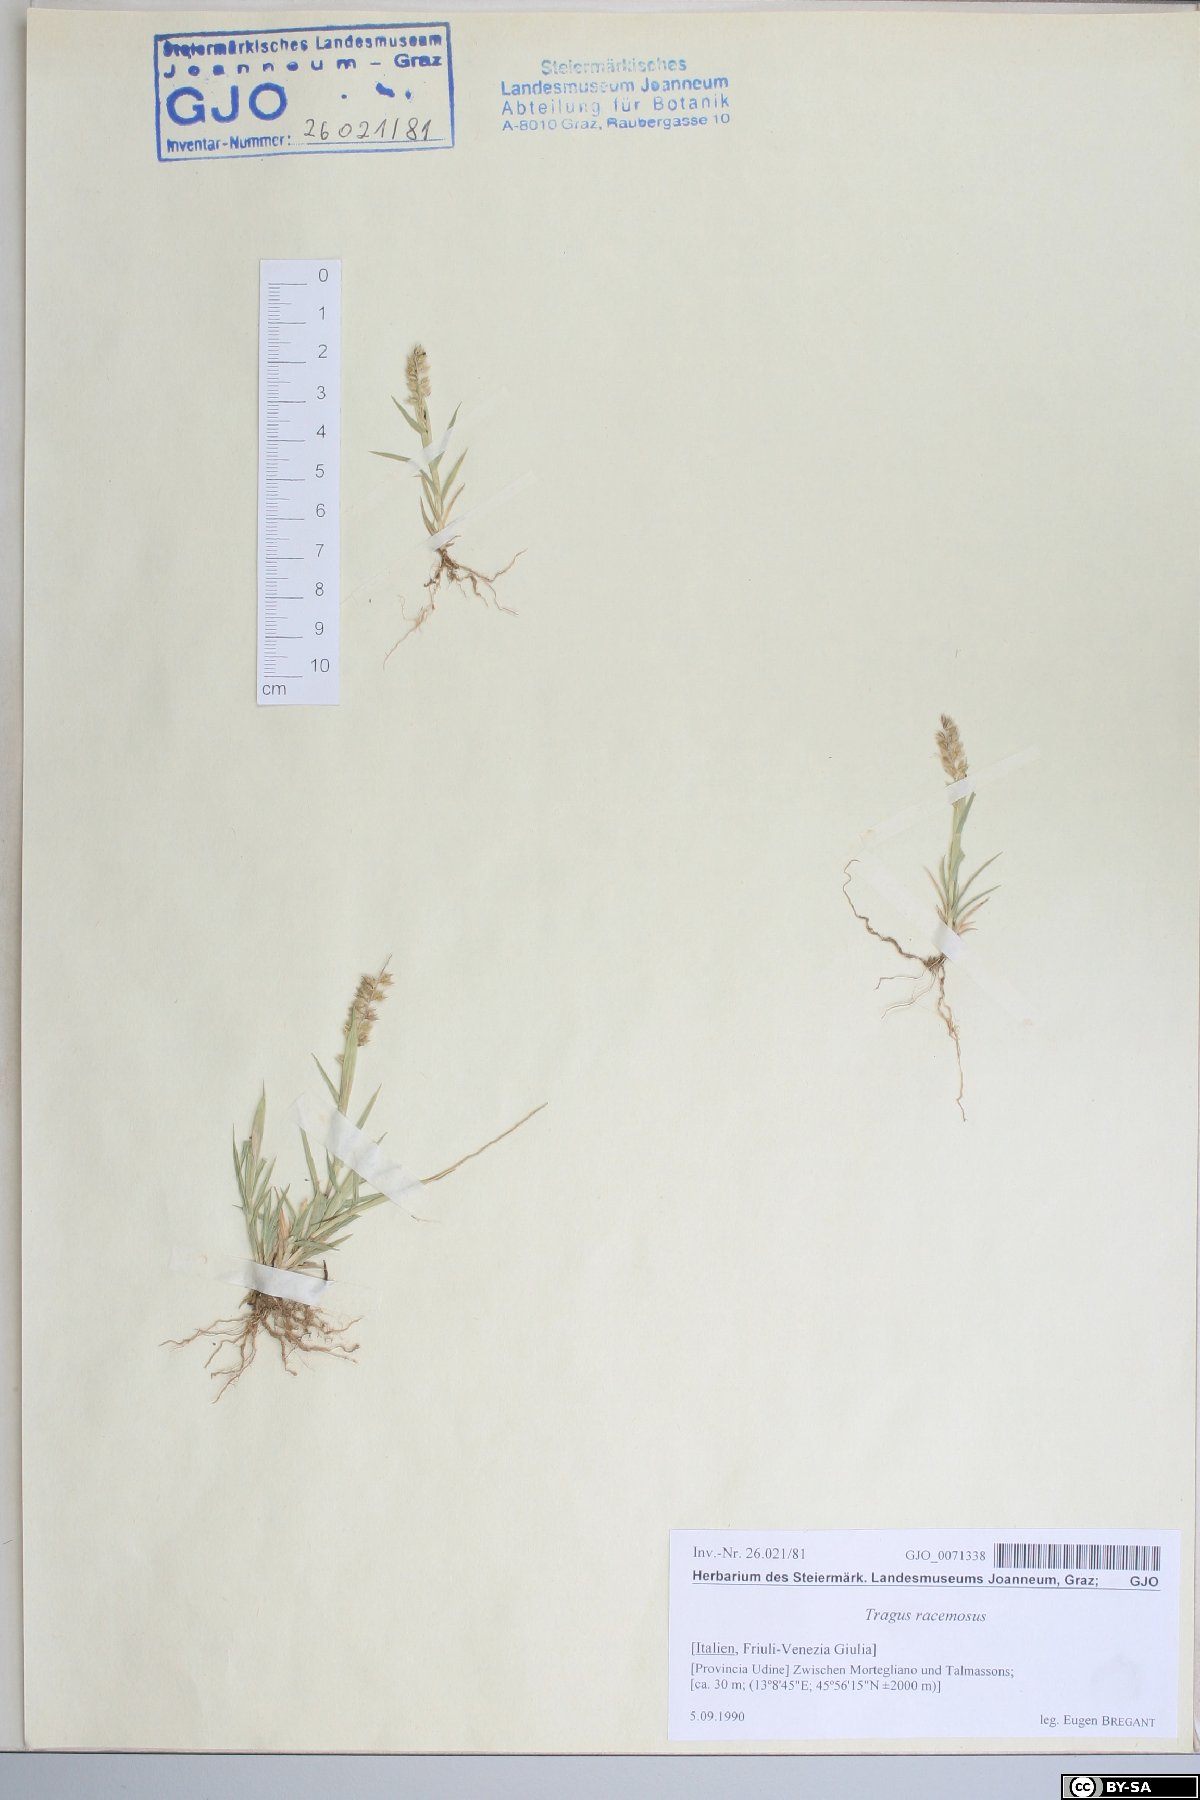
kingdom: Plantae
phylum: Tracheophyta
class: Liliopsida
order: Poales
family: Poaceae
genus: Tragus
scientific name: Tragus racemosus
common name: European bur-grass
